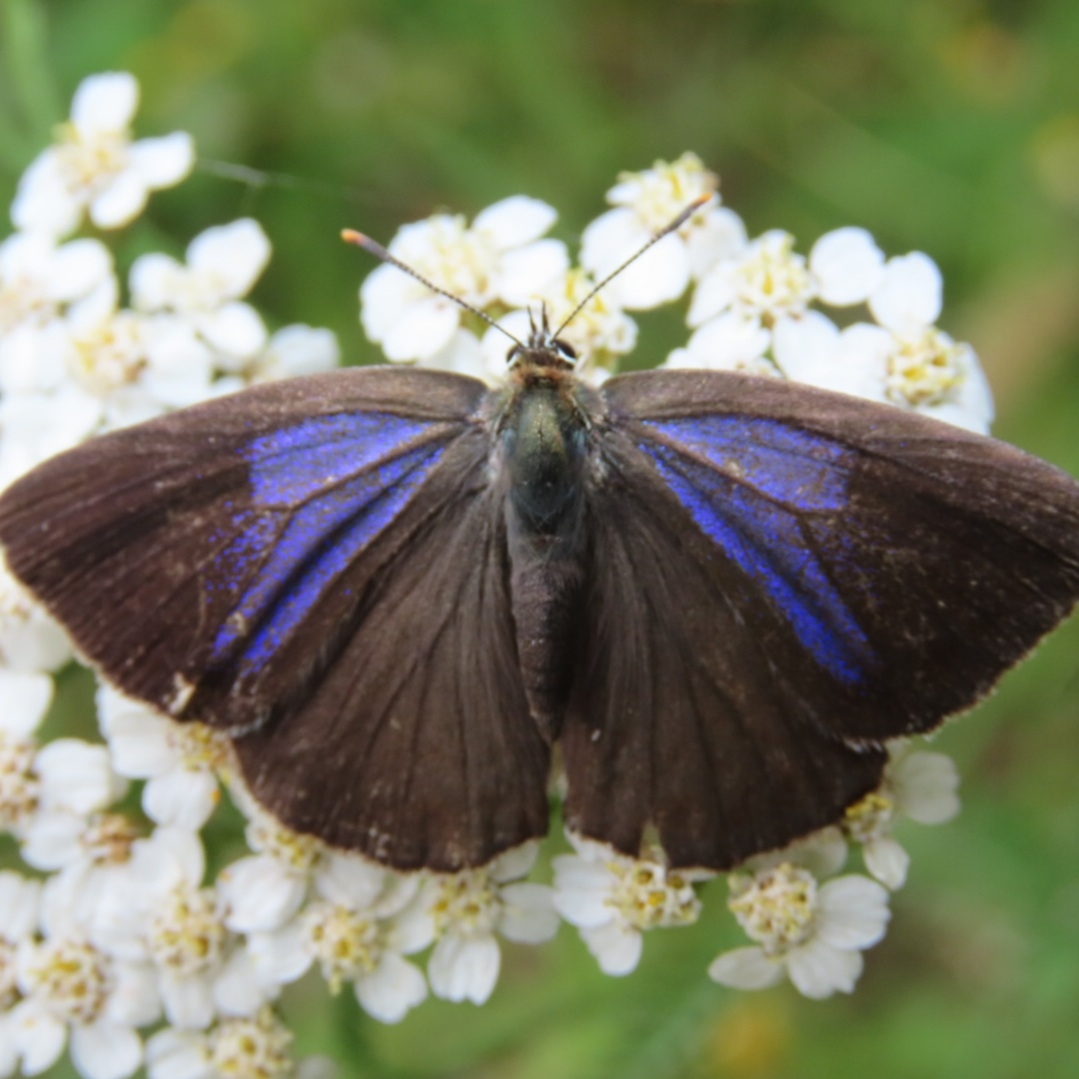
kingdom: Animalia
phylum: Arthropoda
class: Insecta
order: Lepidoptera
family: Lycaenidae
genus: Quercusia
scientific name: Quercusia quercus
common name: Blåhale
